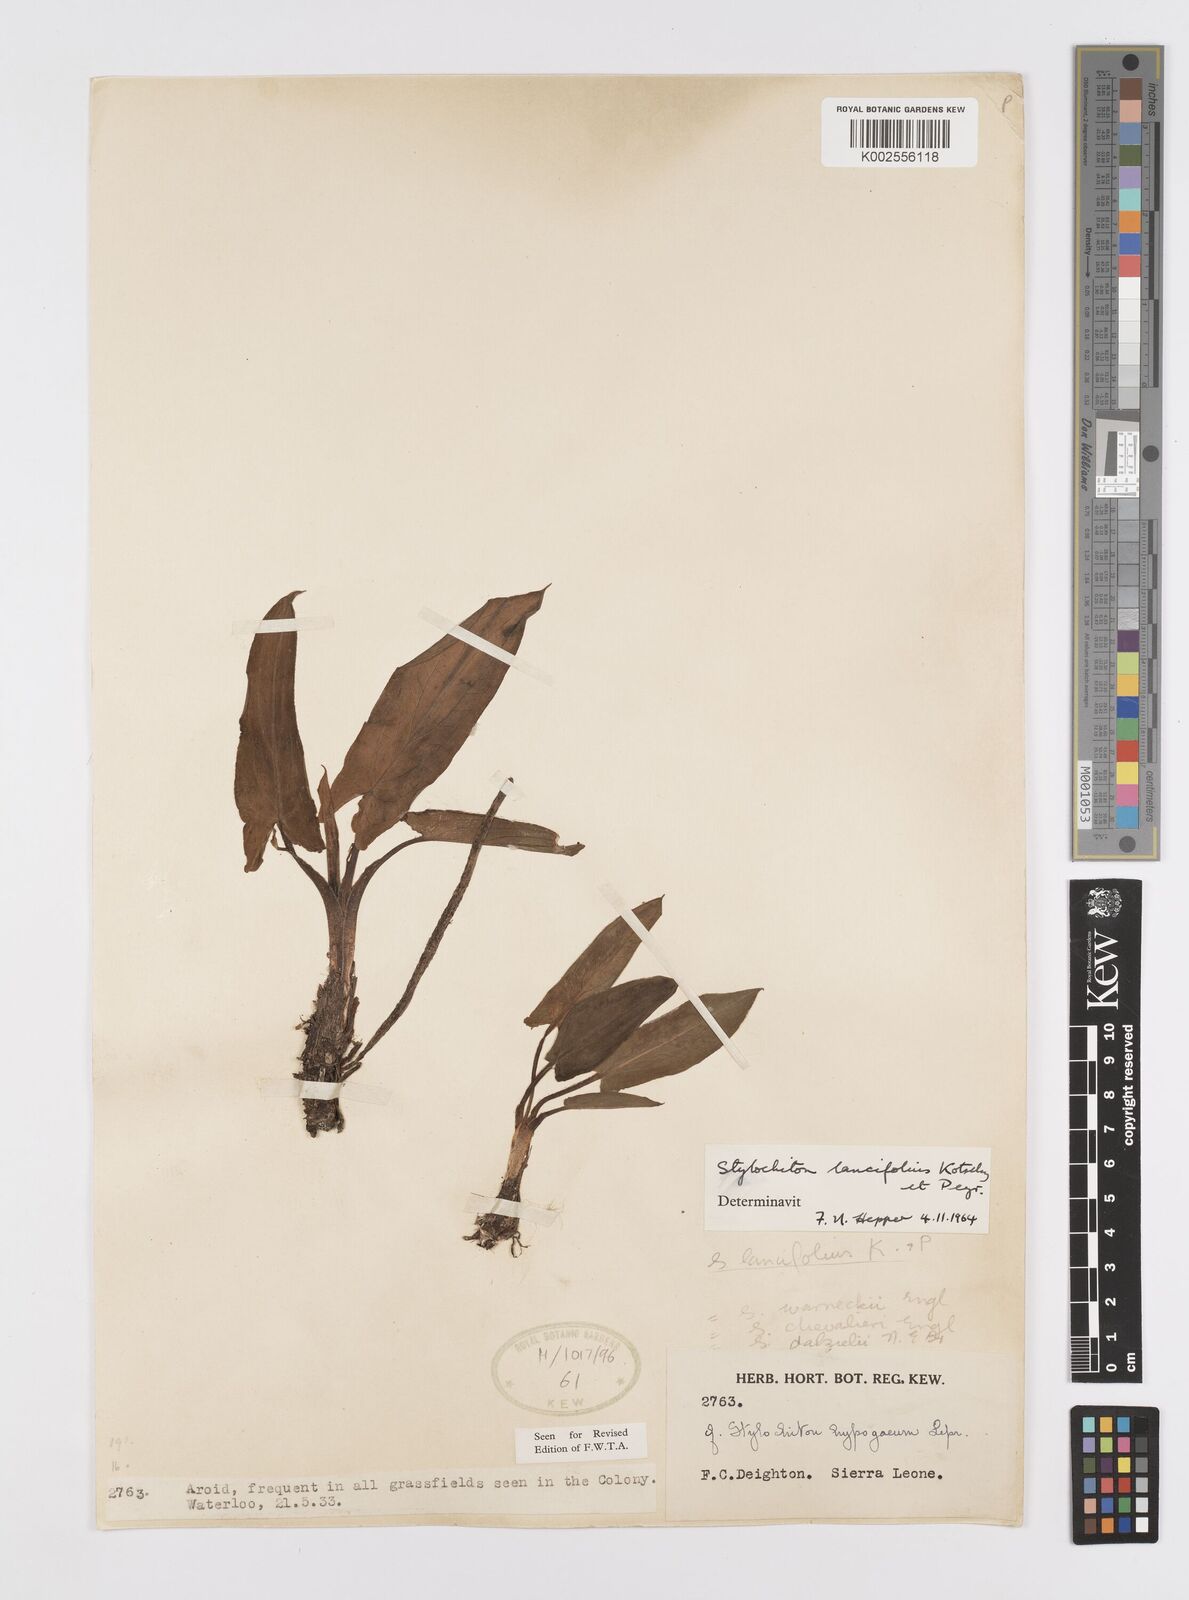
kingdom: Plantae
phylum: Tracheophyta
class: Liliopsida
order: Alismatales
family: Araceae
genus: Stylochaeton
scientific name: Stylochaeton lancifolium
